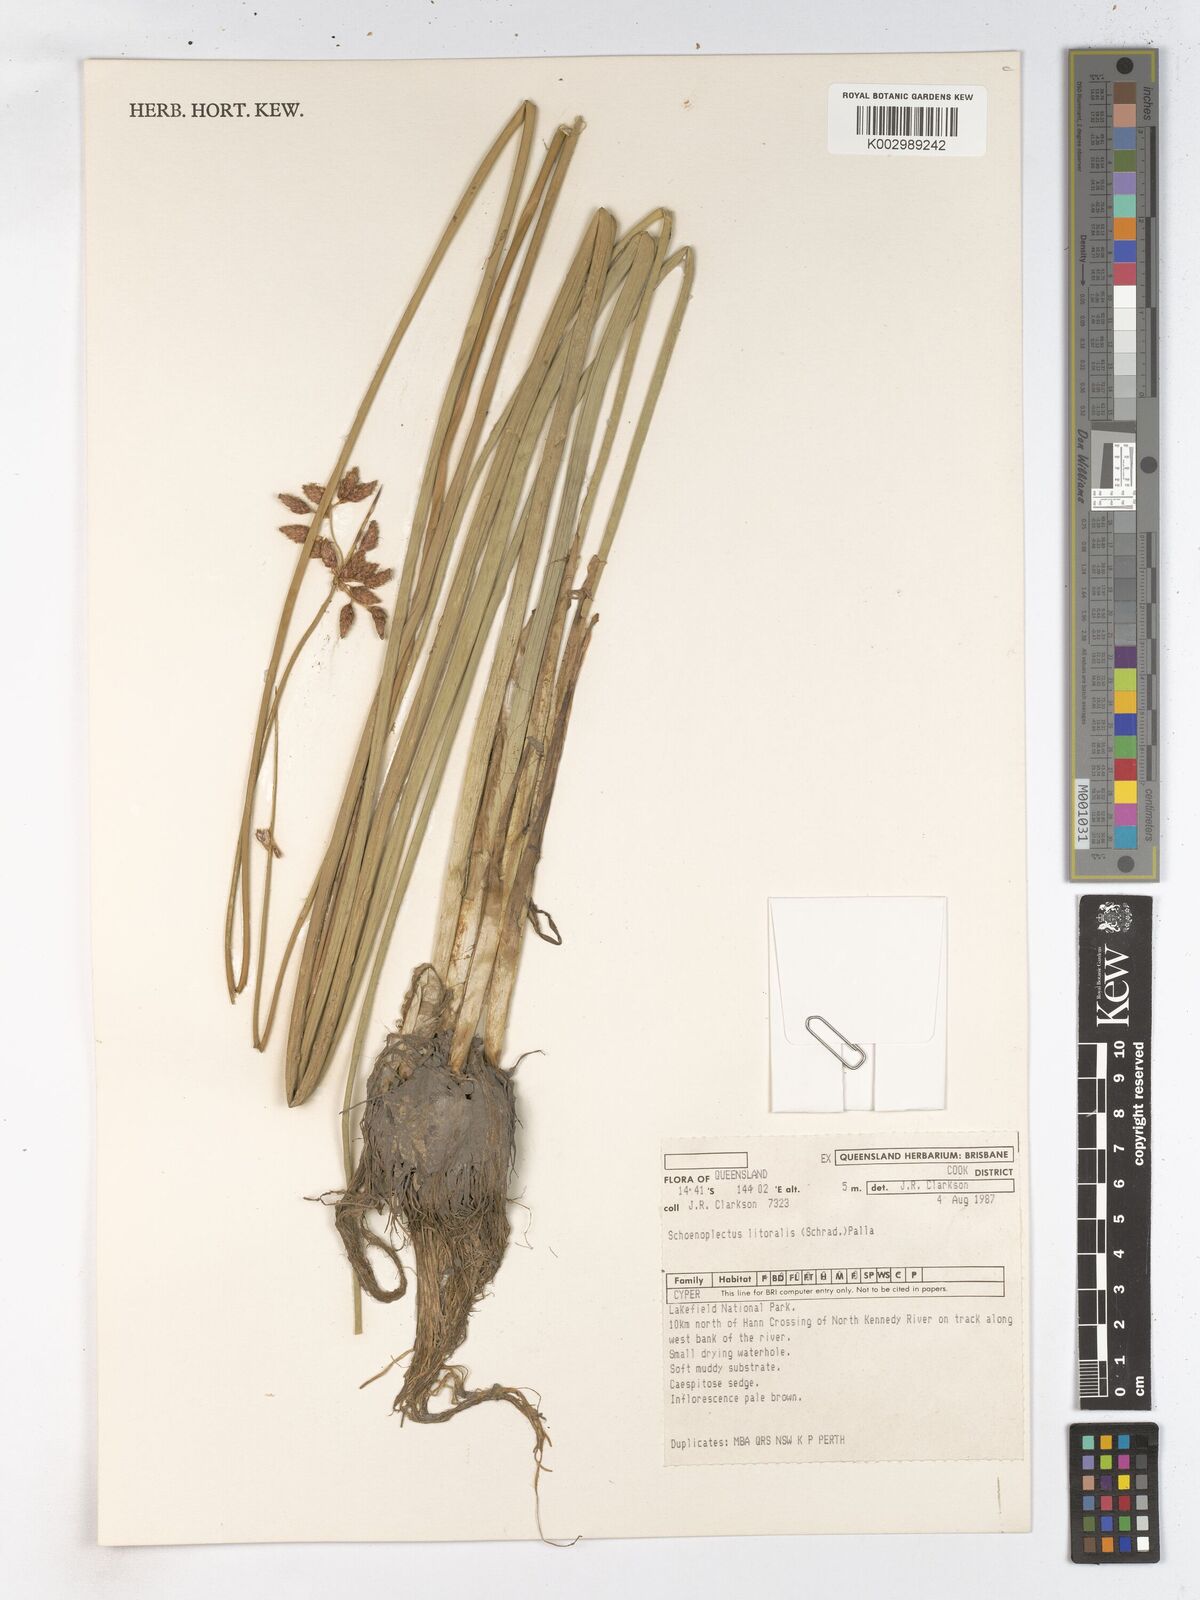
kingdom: Plantae
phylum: Tracheophyta
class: Liliopsida
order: Poales
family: Cyperaceae
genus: Schoenoplectus
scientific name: Schoenoplectus litoralis
